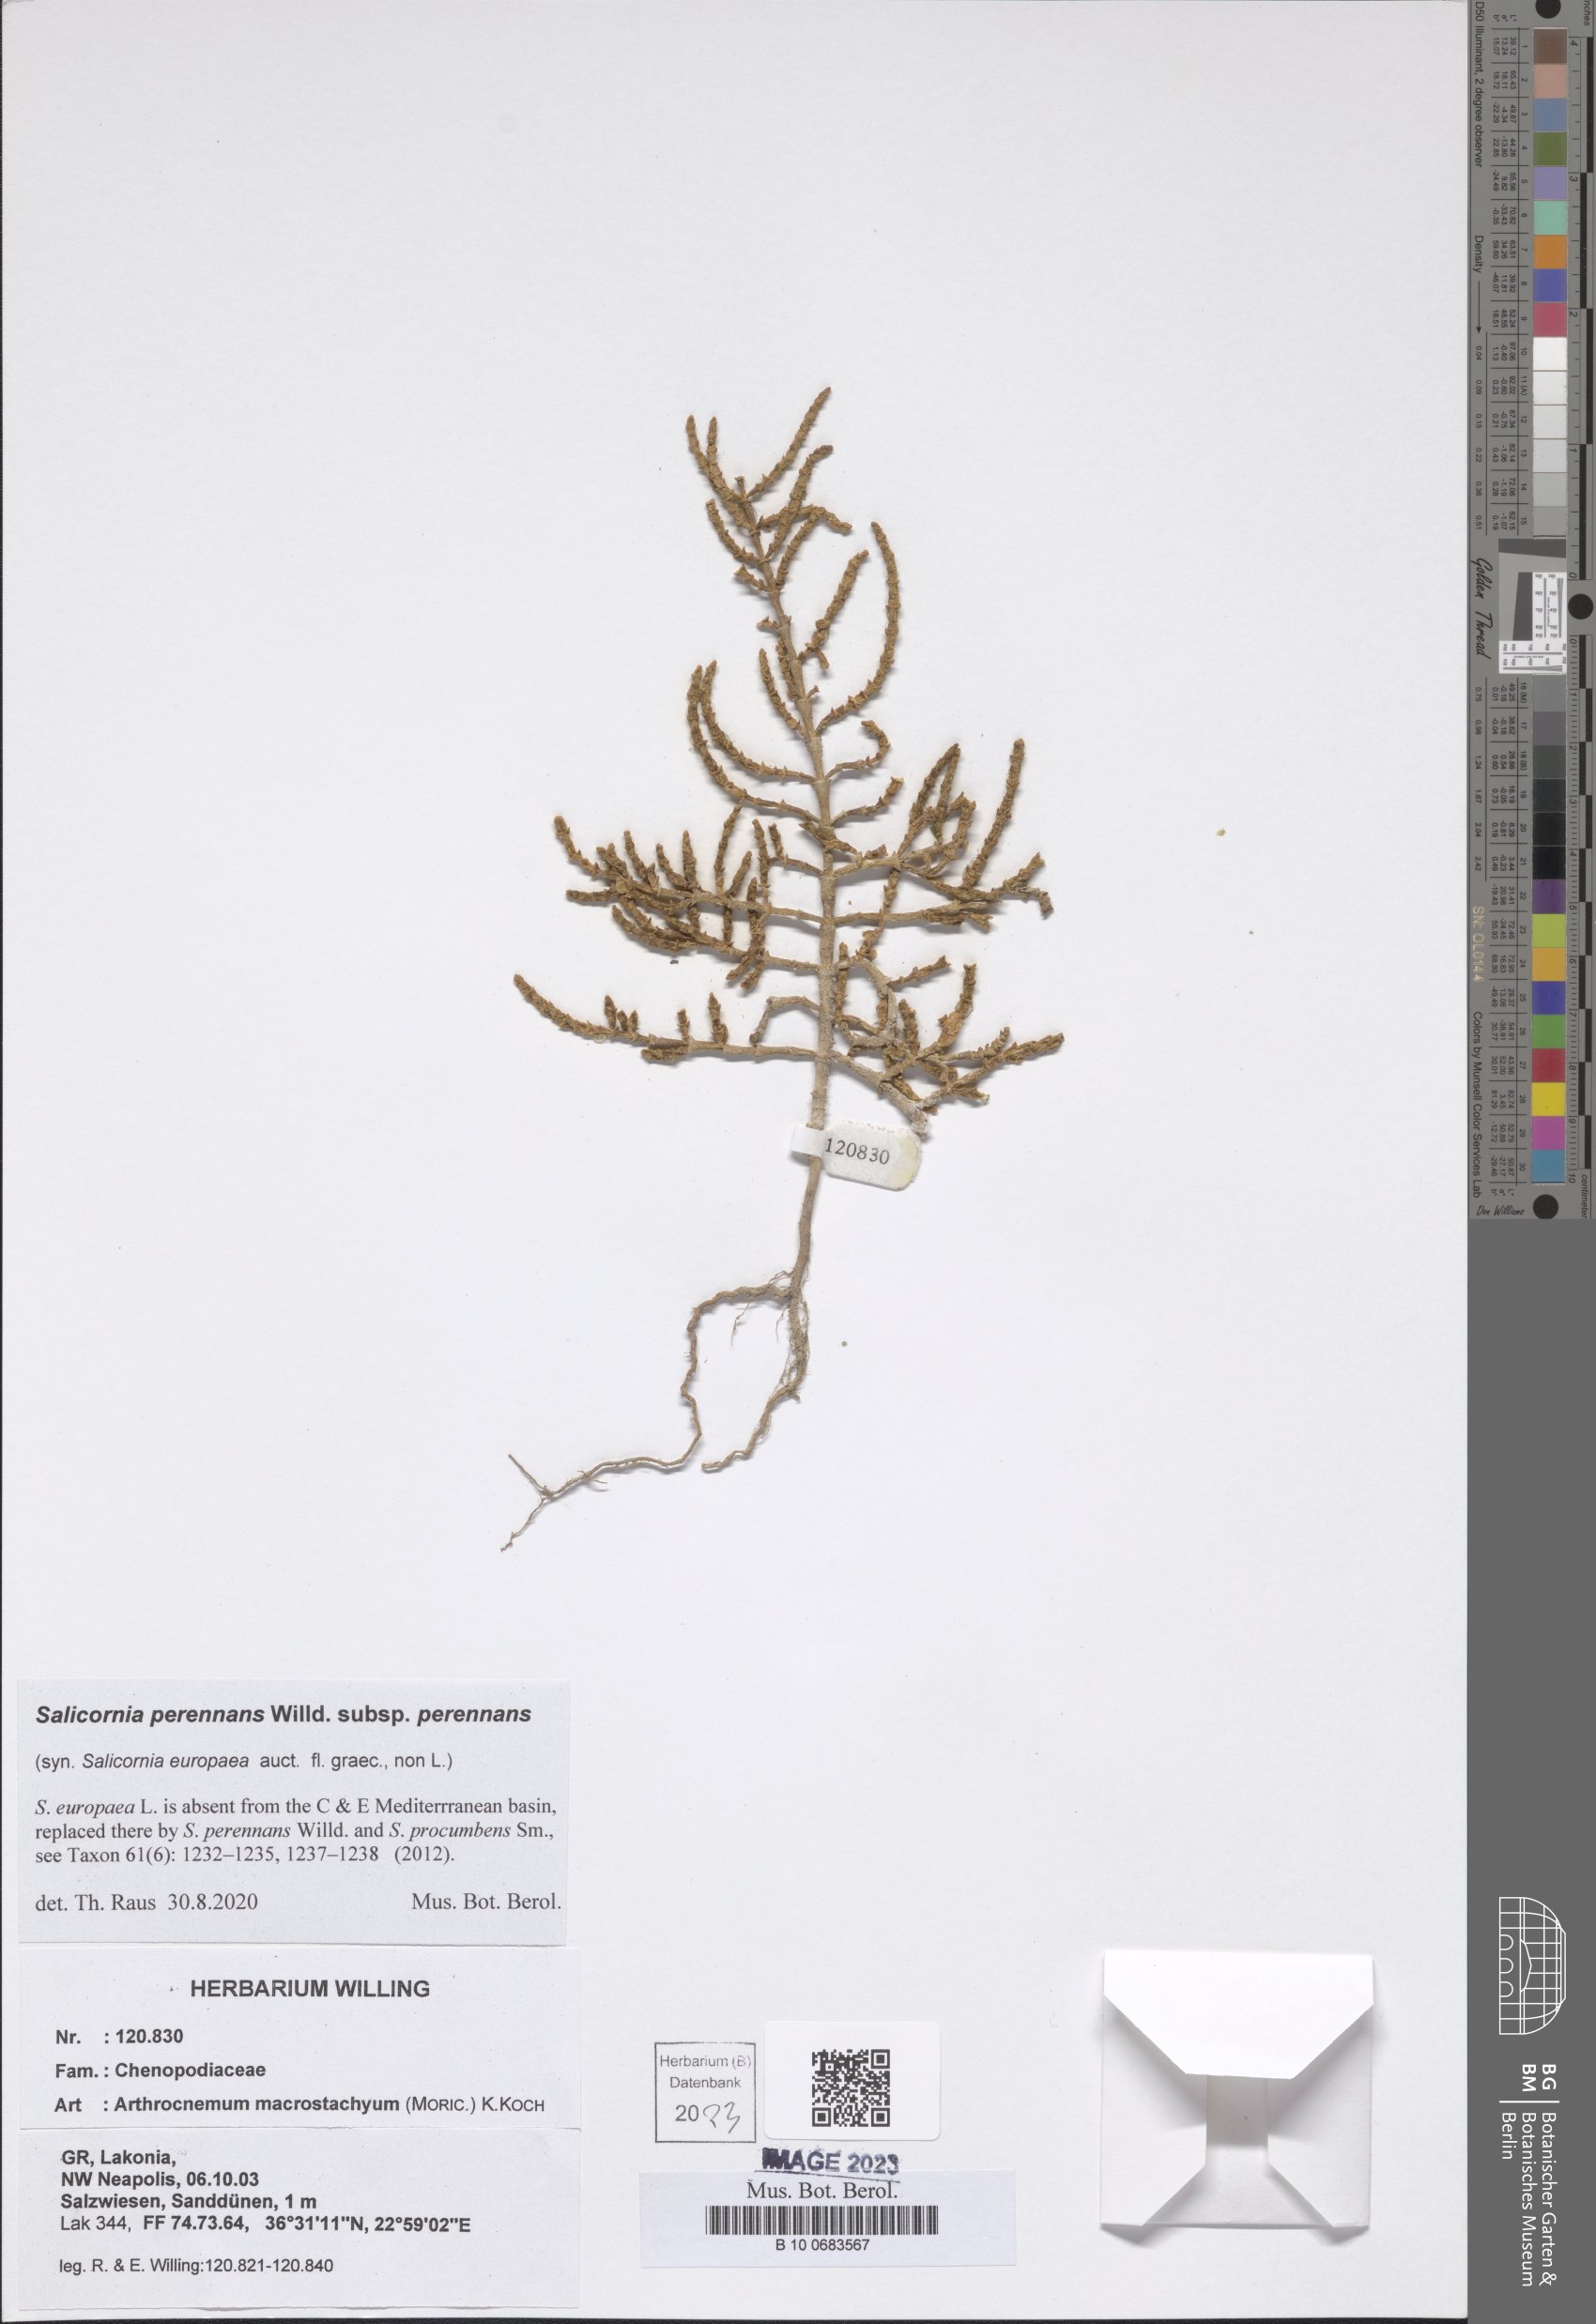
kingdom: Plantae
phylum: Tracheophyta
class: Magnoliopsida
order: Caryophyllales
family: Amaranthaceae
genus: Salicornia
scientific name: Salicornia perennans
